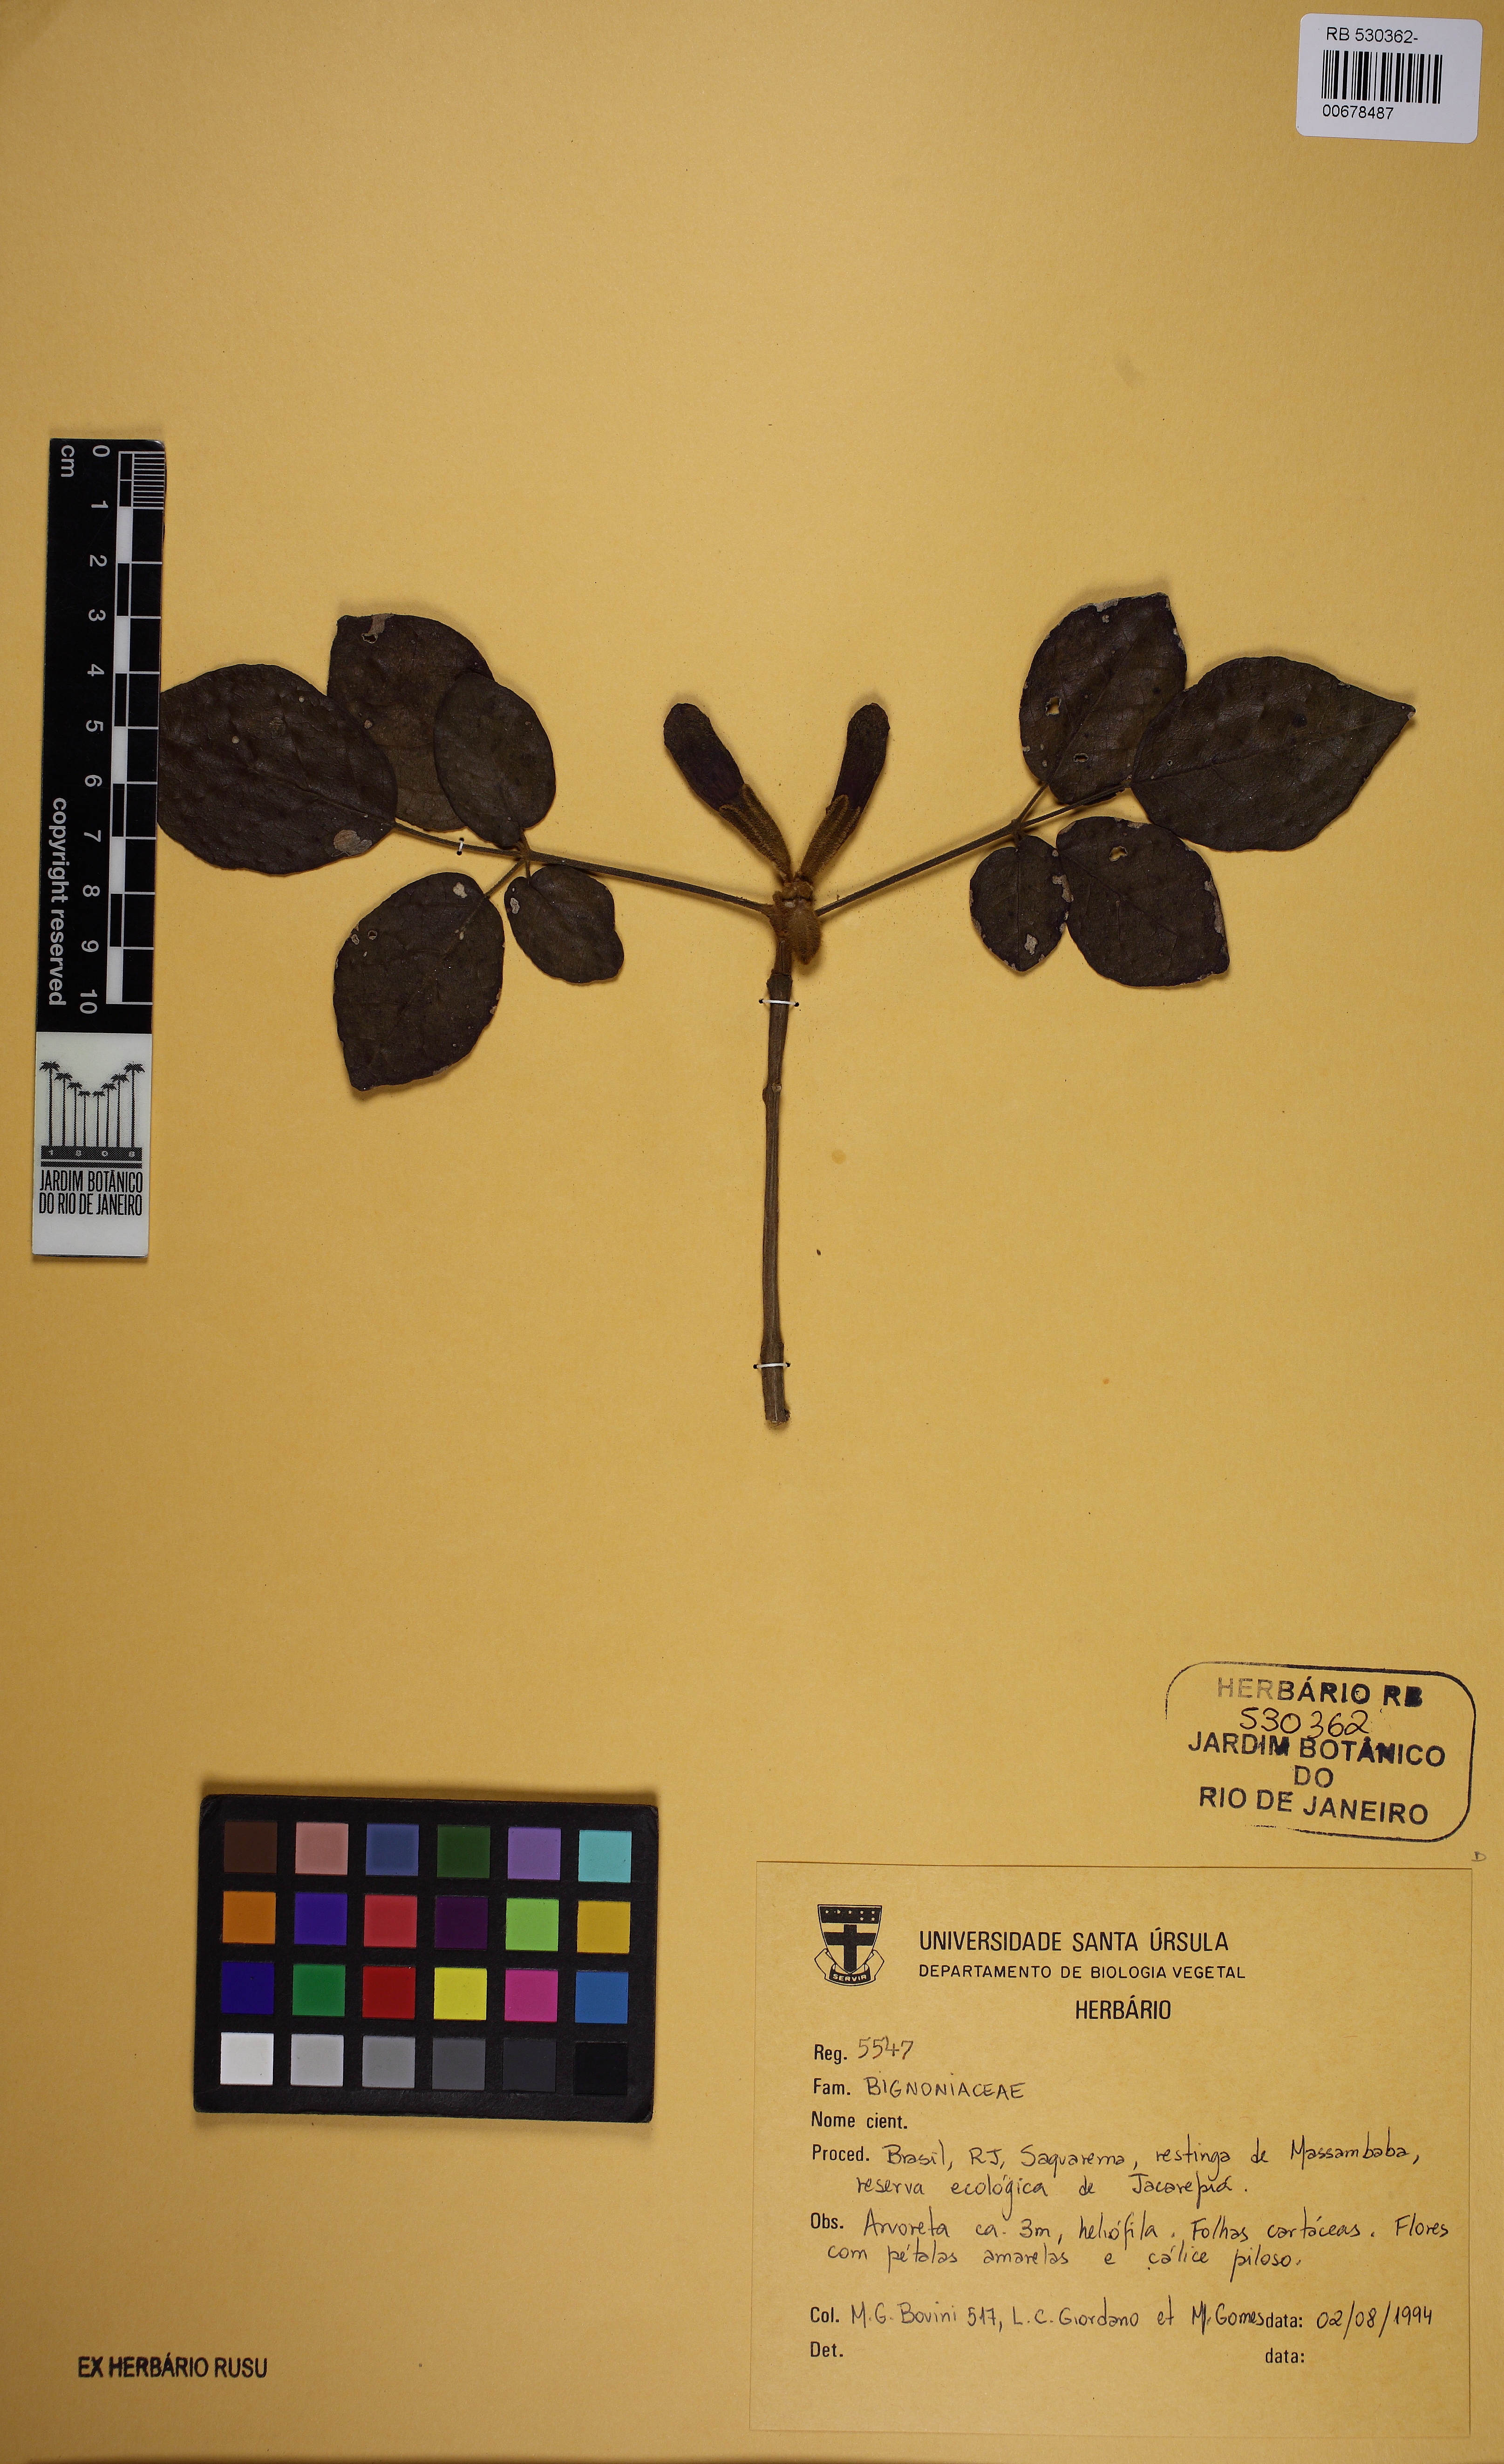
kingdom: Plantae
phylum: Tracheophyta
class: Magnoliopsida
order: Lamiales
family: Bignoniaceae
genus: Handroanthus
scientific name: Handroanthus botelhensis
